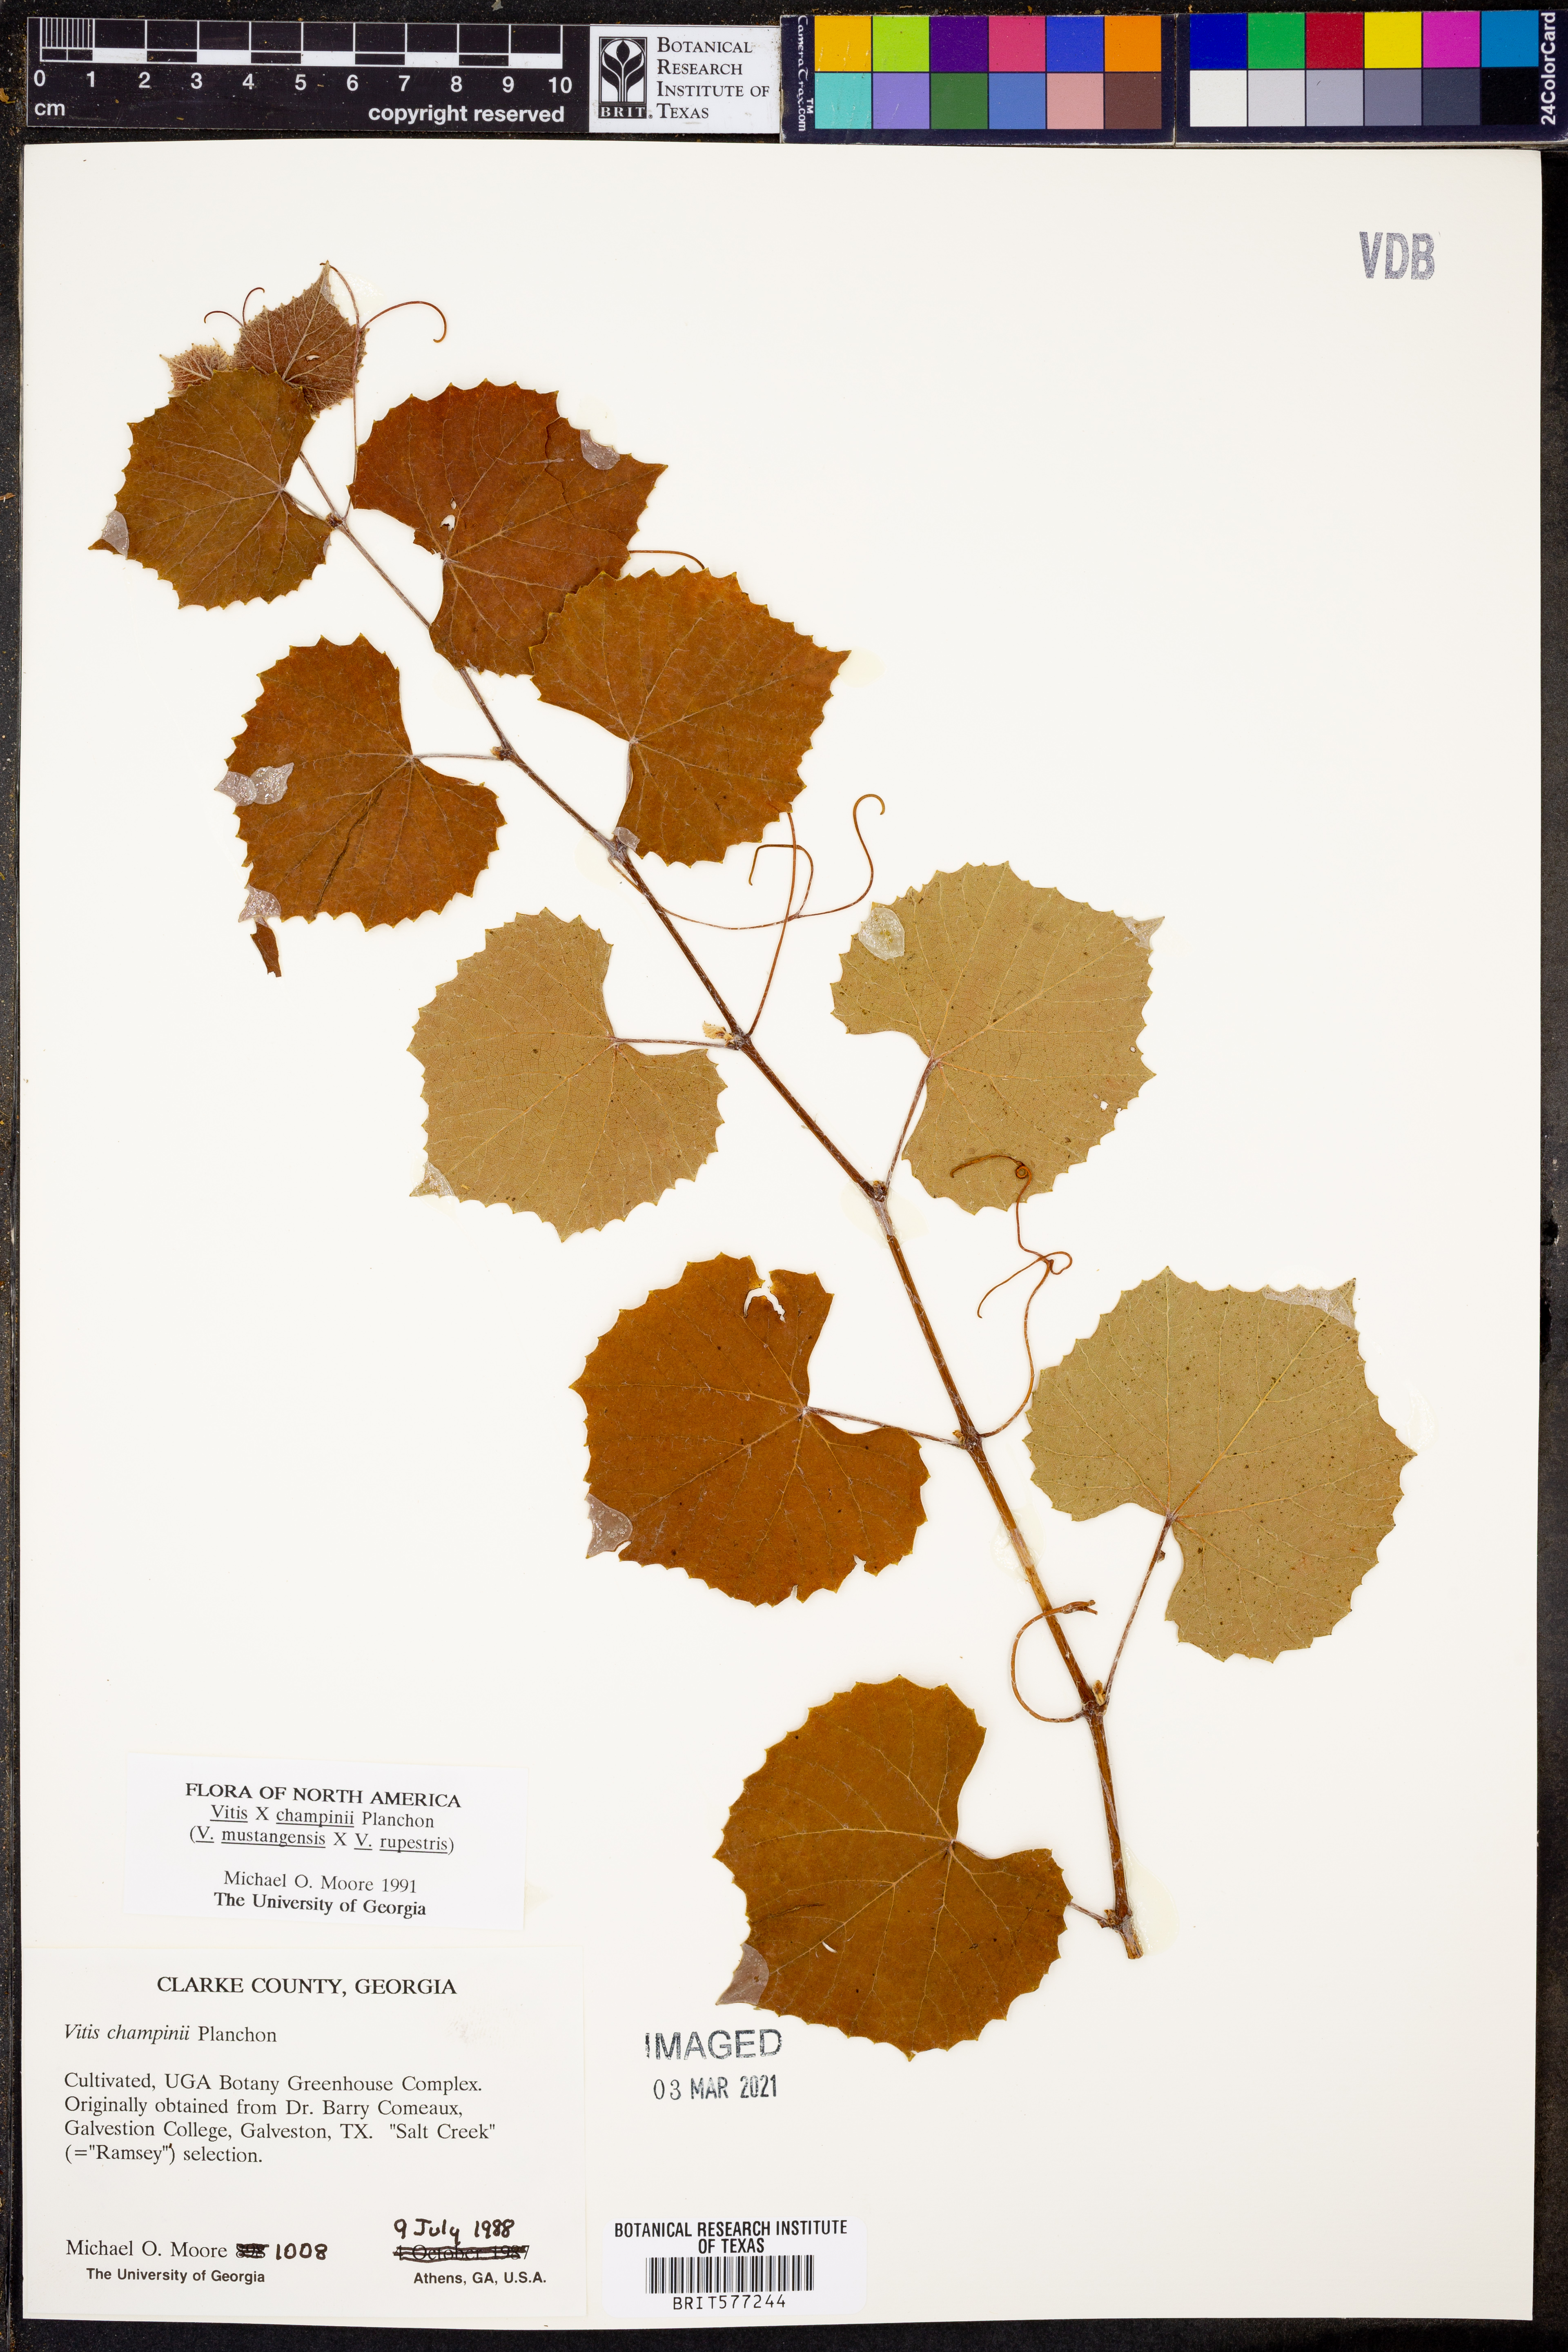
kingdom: Plantae
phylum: Tracheophyta
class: Magnoliopsida
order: Vitales
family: Vitaceae
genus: Vitis
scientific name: Vitis
